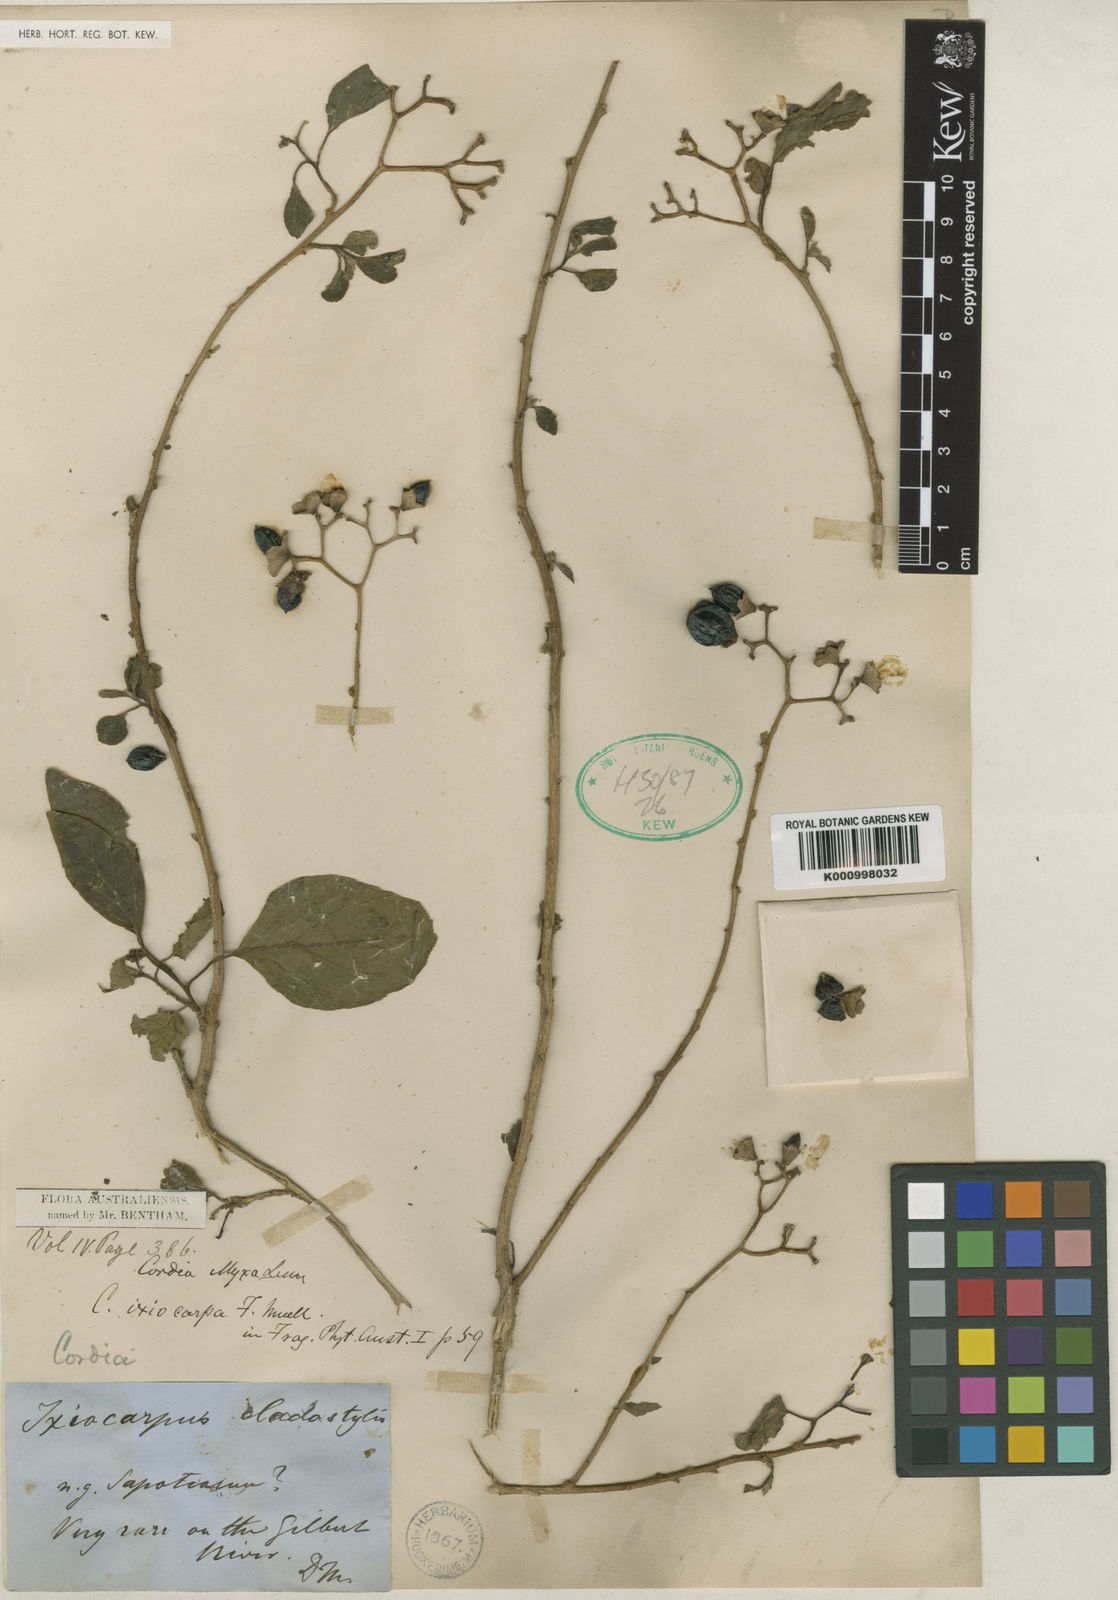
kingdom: Plantae
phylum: Tracheophyta
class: Magnoliopsida
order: Boraginales
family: Cordiaceae
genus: Cordia
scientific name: Cordia dichotoma
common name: Fragrant manjack
